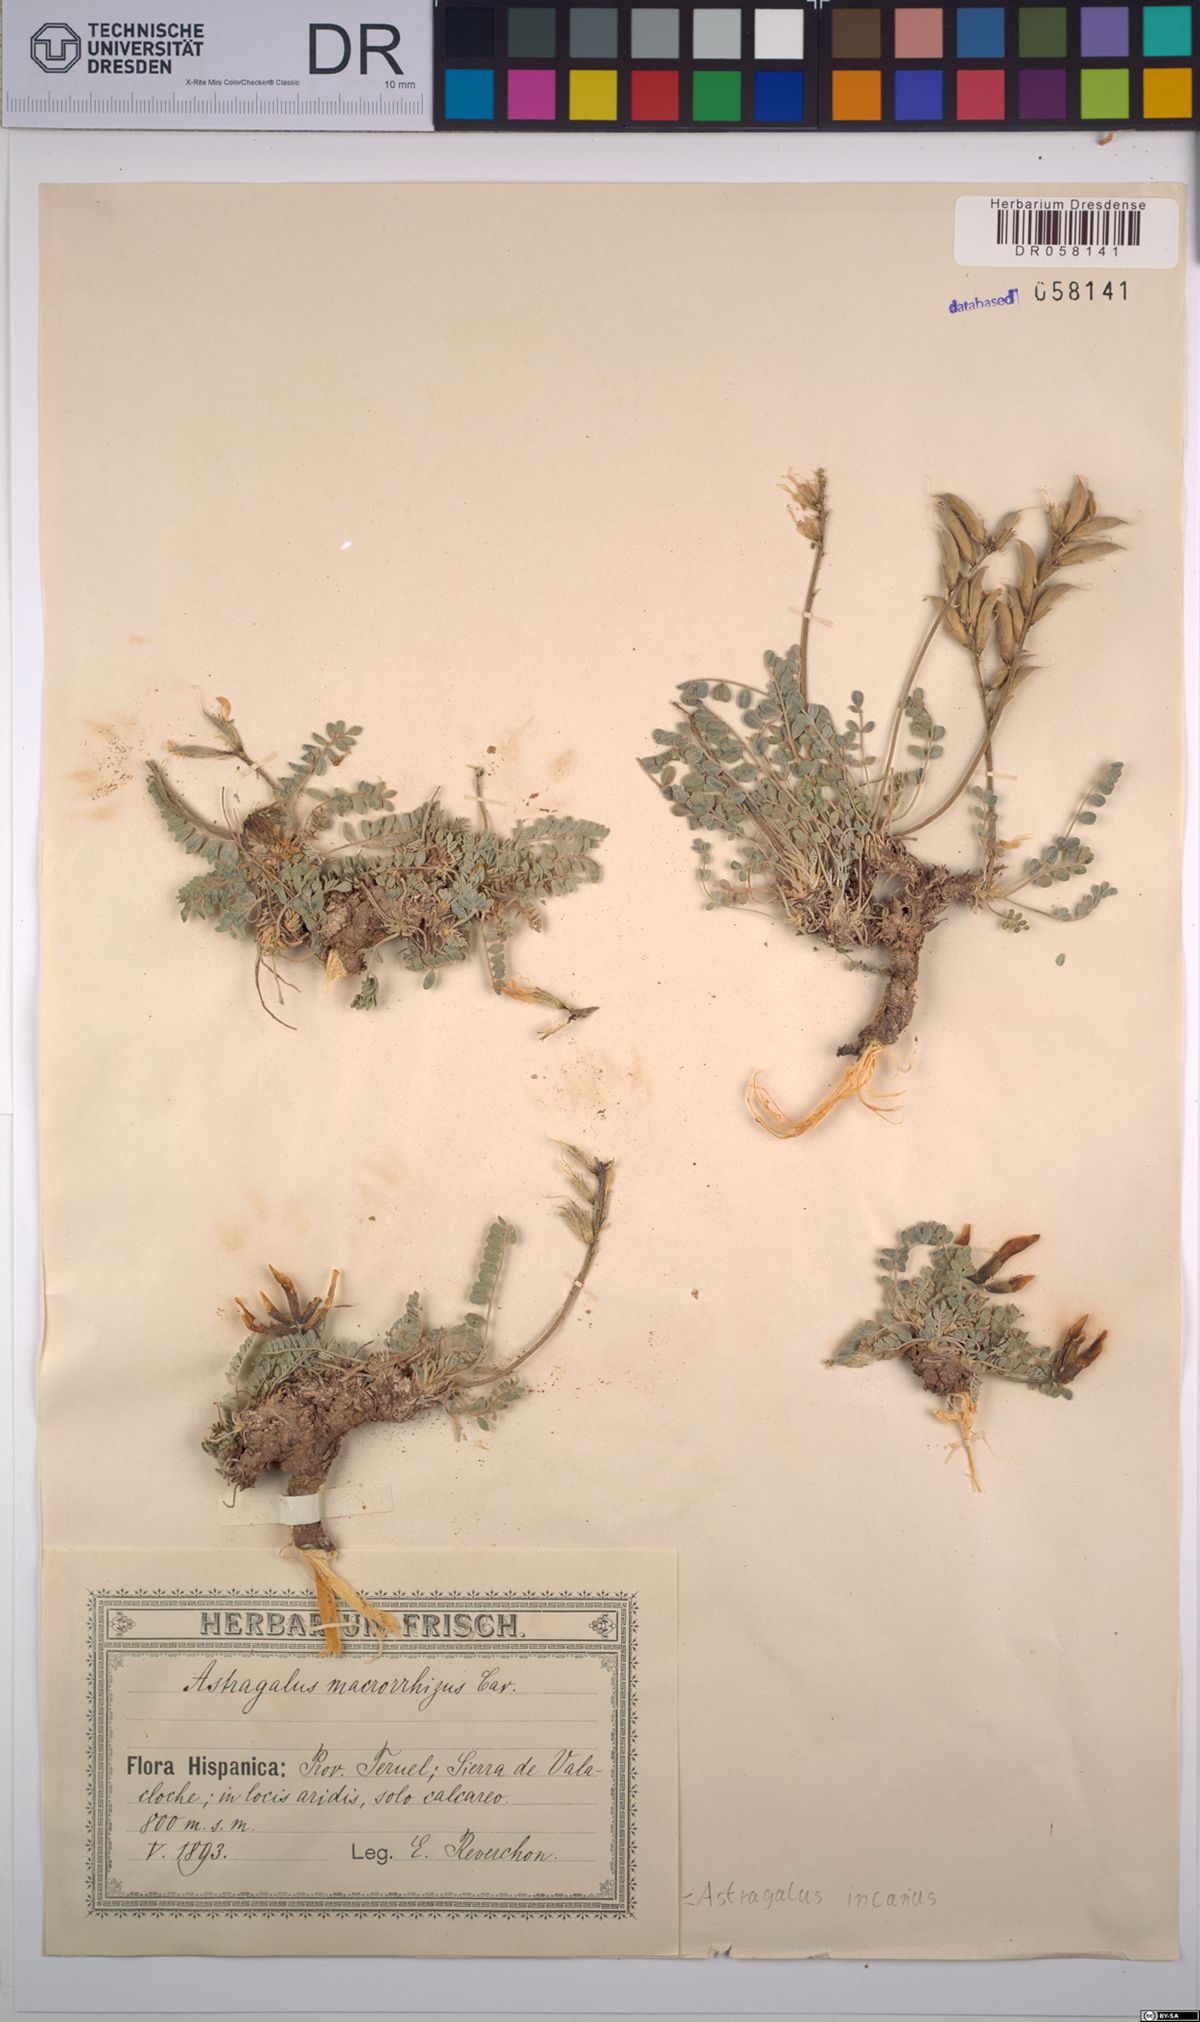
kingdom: Plantae
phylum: Tracheophyta
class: Magnoliopsida
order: Fabales
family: Fabaceae
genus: Astragalus
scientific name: Astragalus incanus
